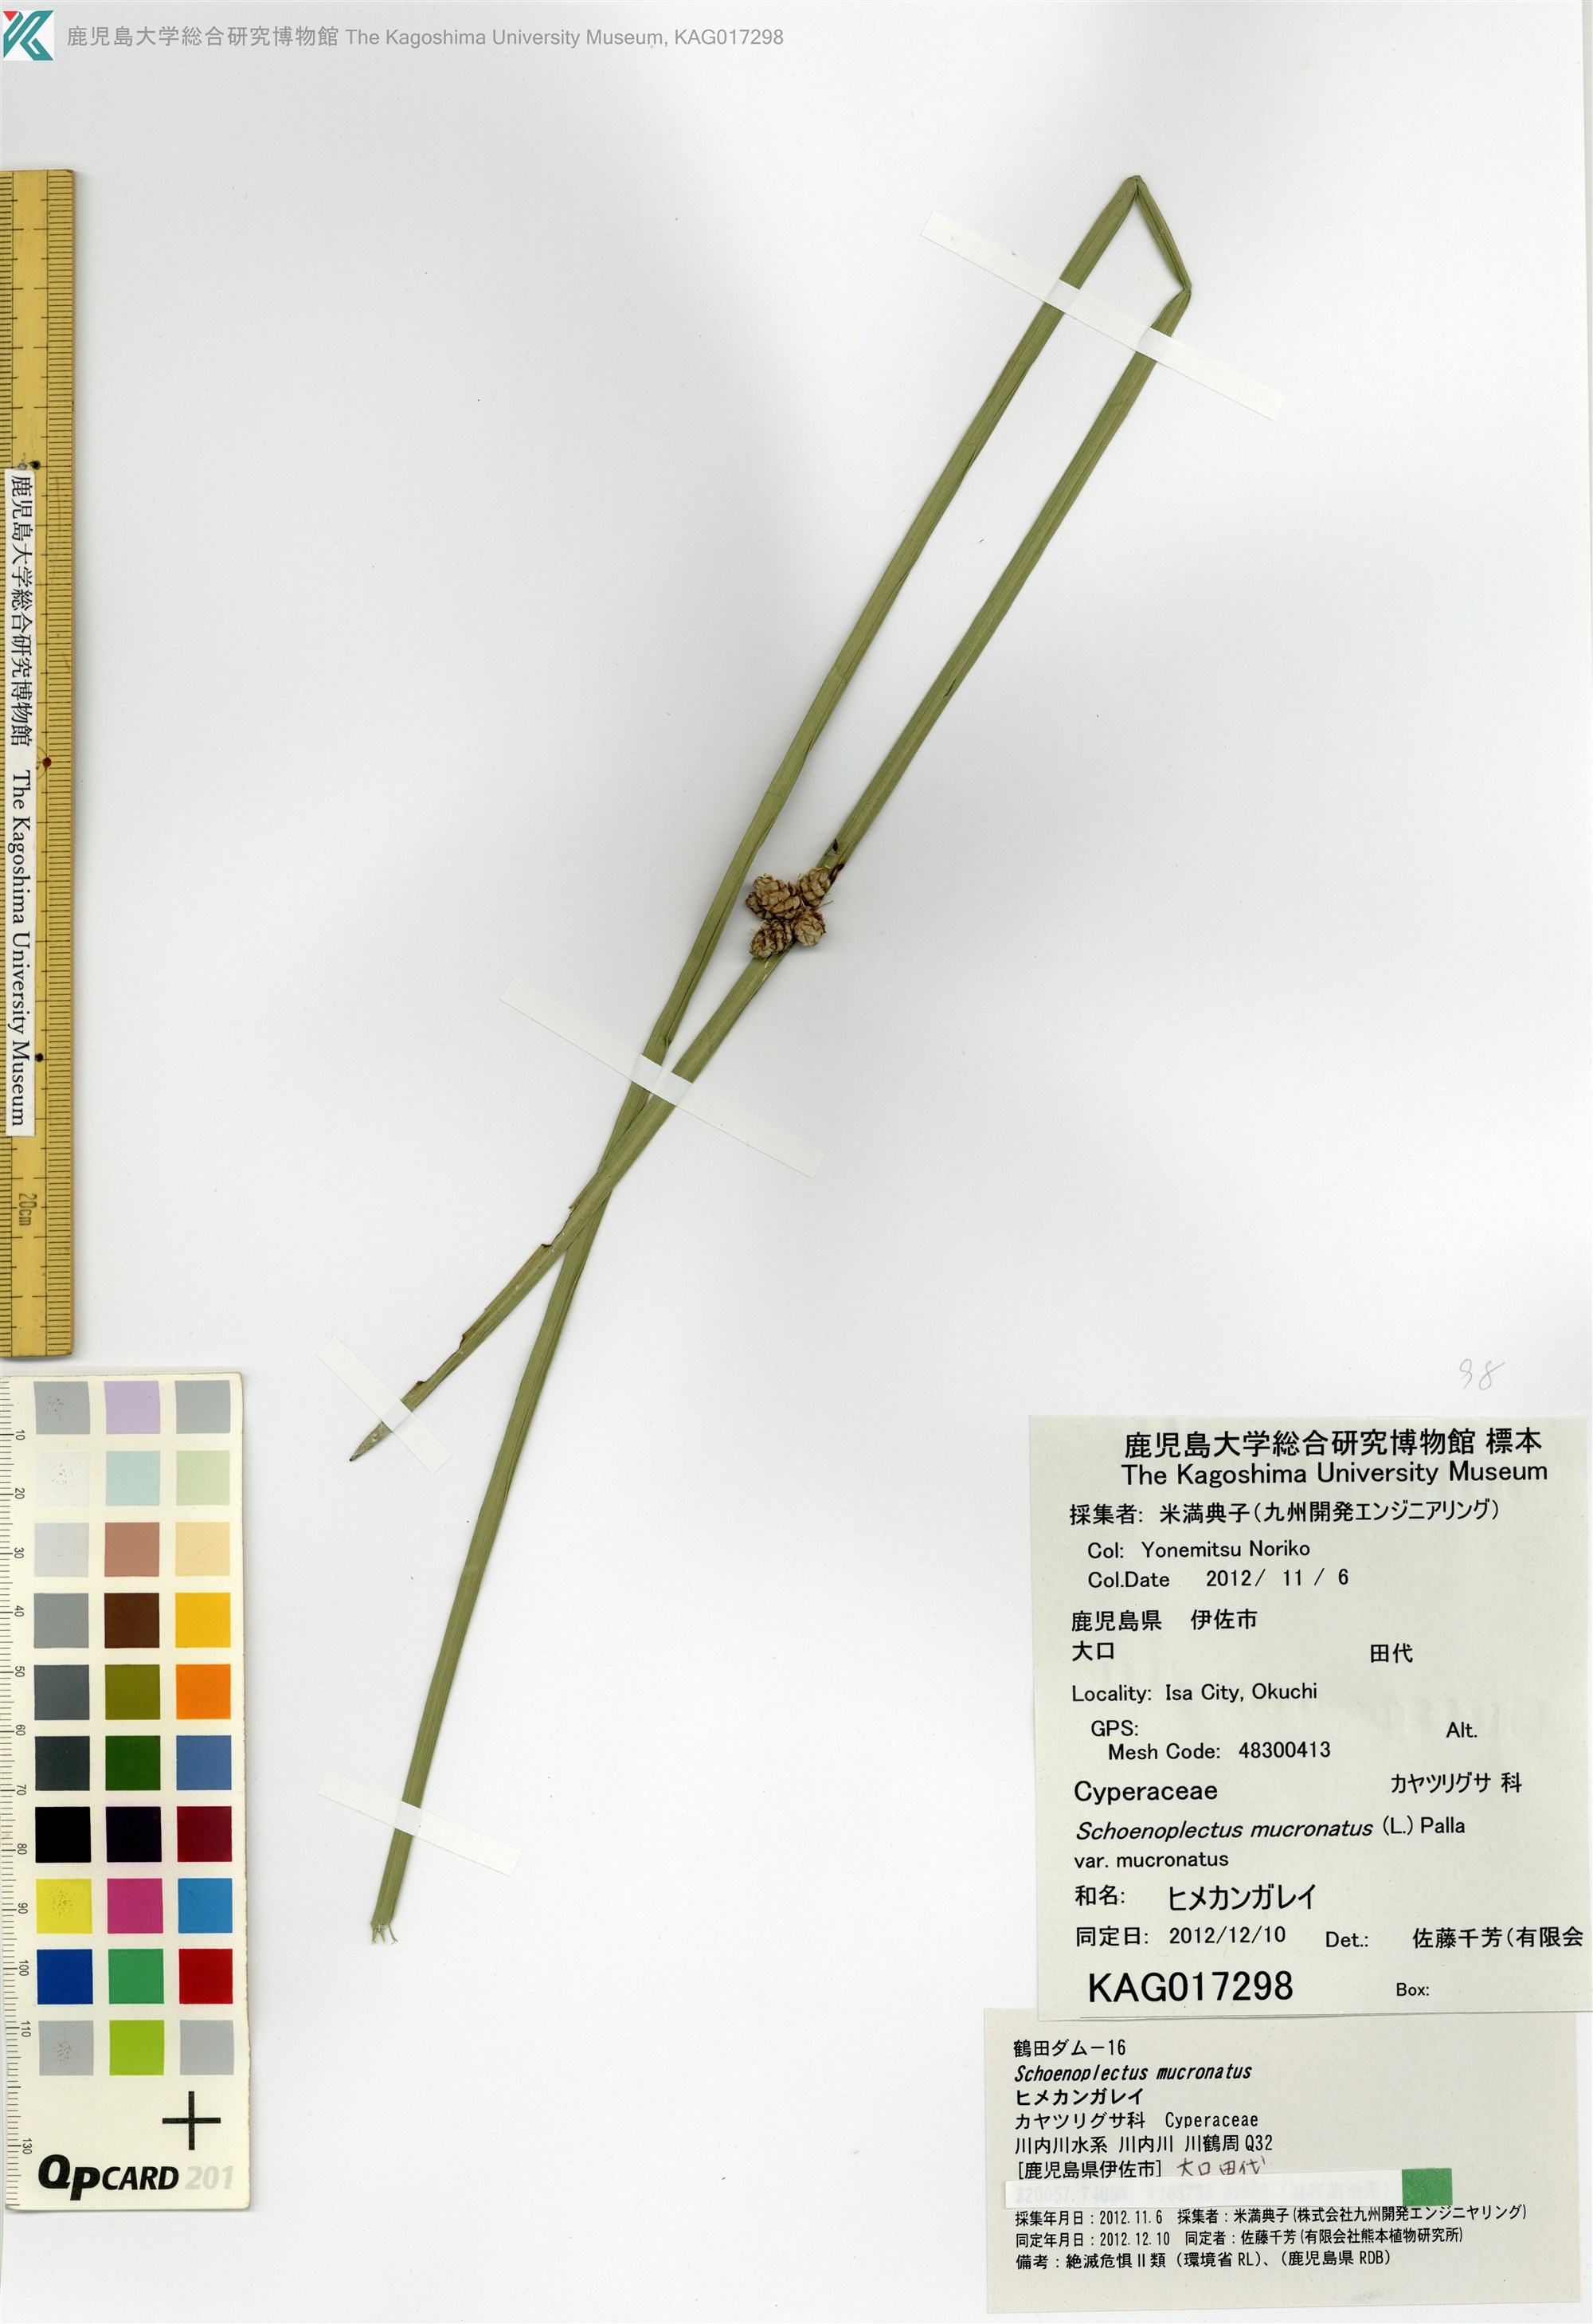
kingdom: Plantae
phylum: Tracheophyta
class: Liliopsida
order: Poales
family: Cyperaceae
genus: Schoenoplectiella
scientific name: Schoenoplectiella mucronata
